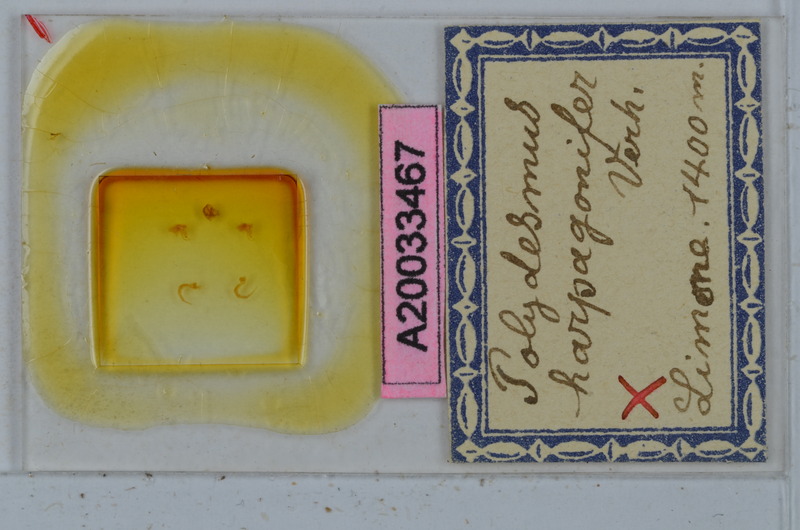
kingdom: Animalia
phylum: Arthropoda
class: Diplopoda
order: Polydesmida
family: Polydesmidae
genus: Propolydesmus
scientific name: Propolydesmus testaceus
